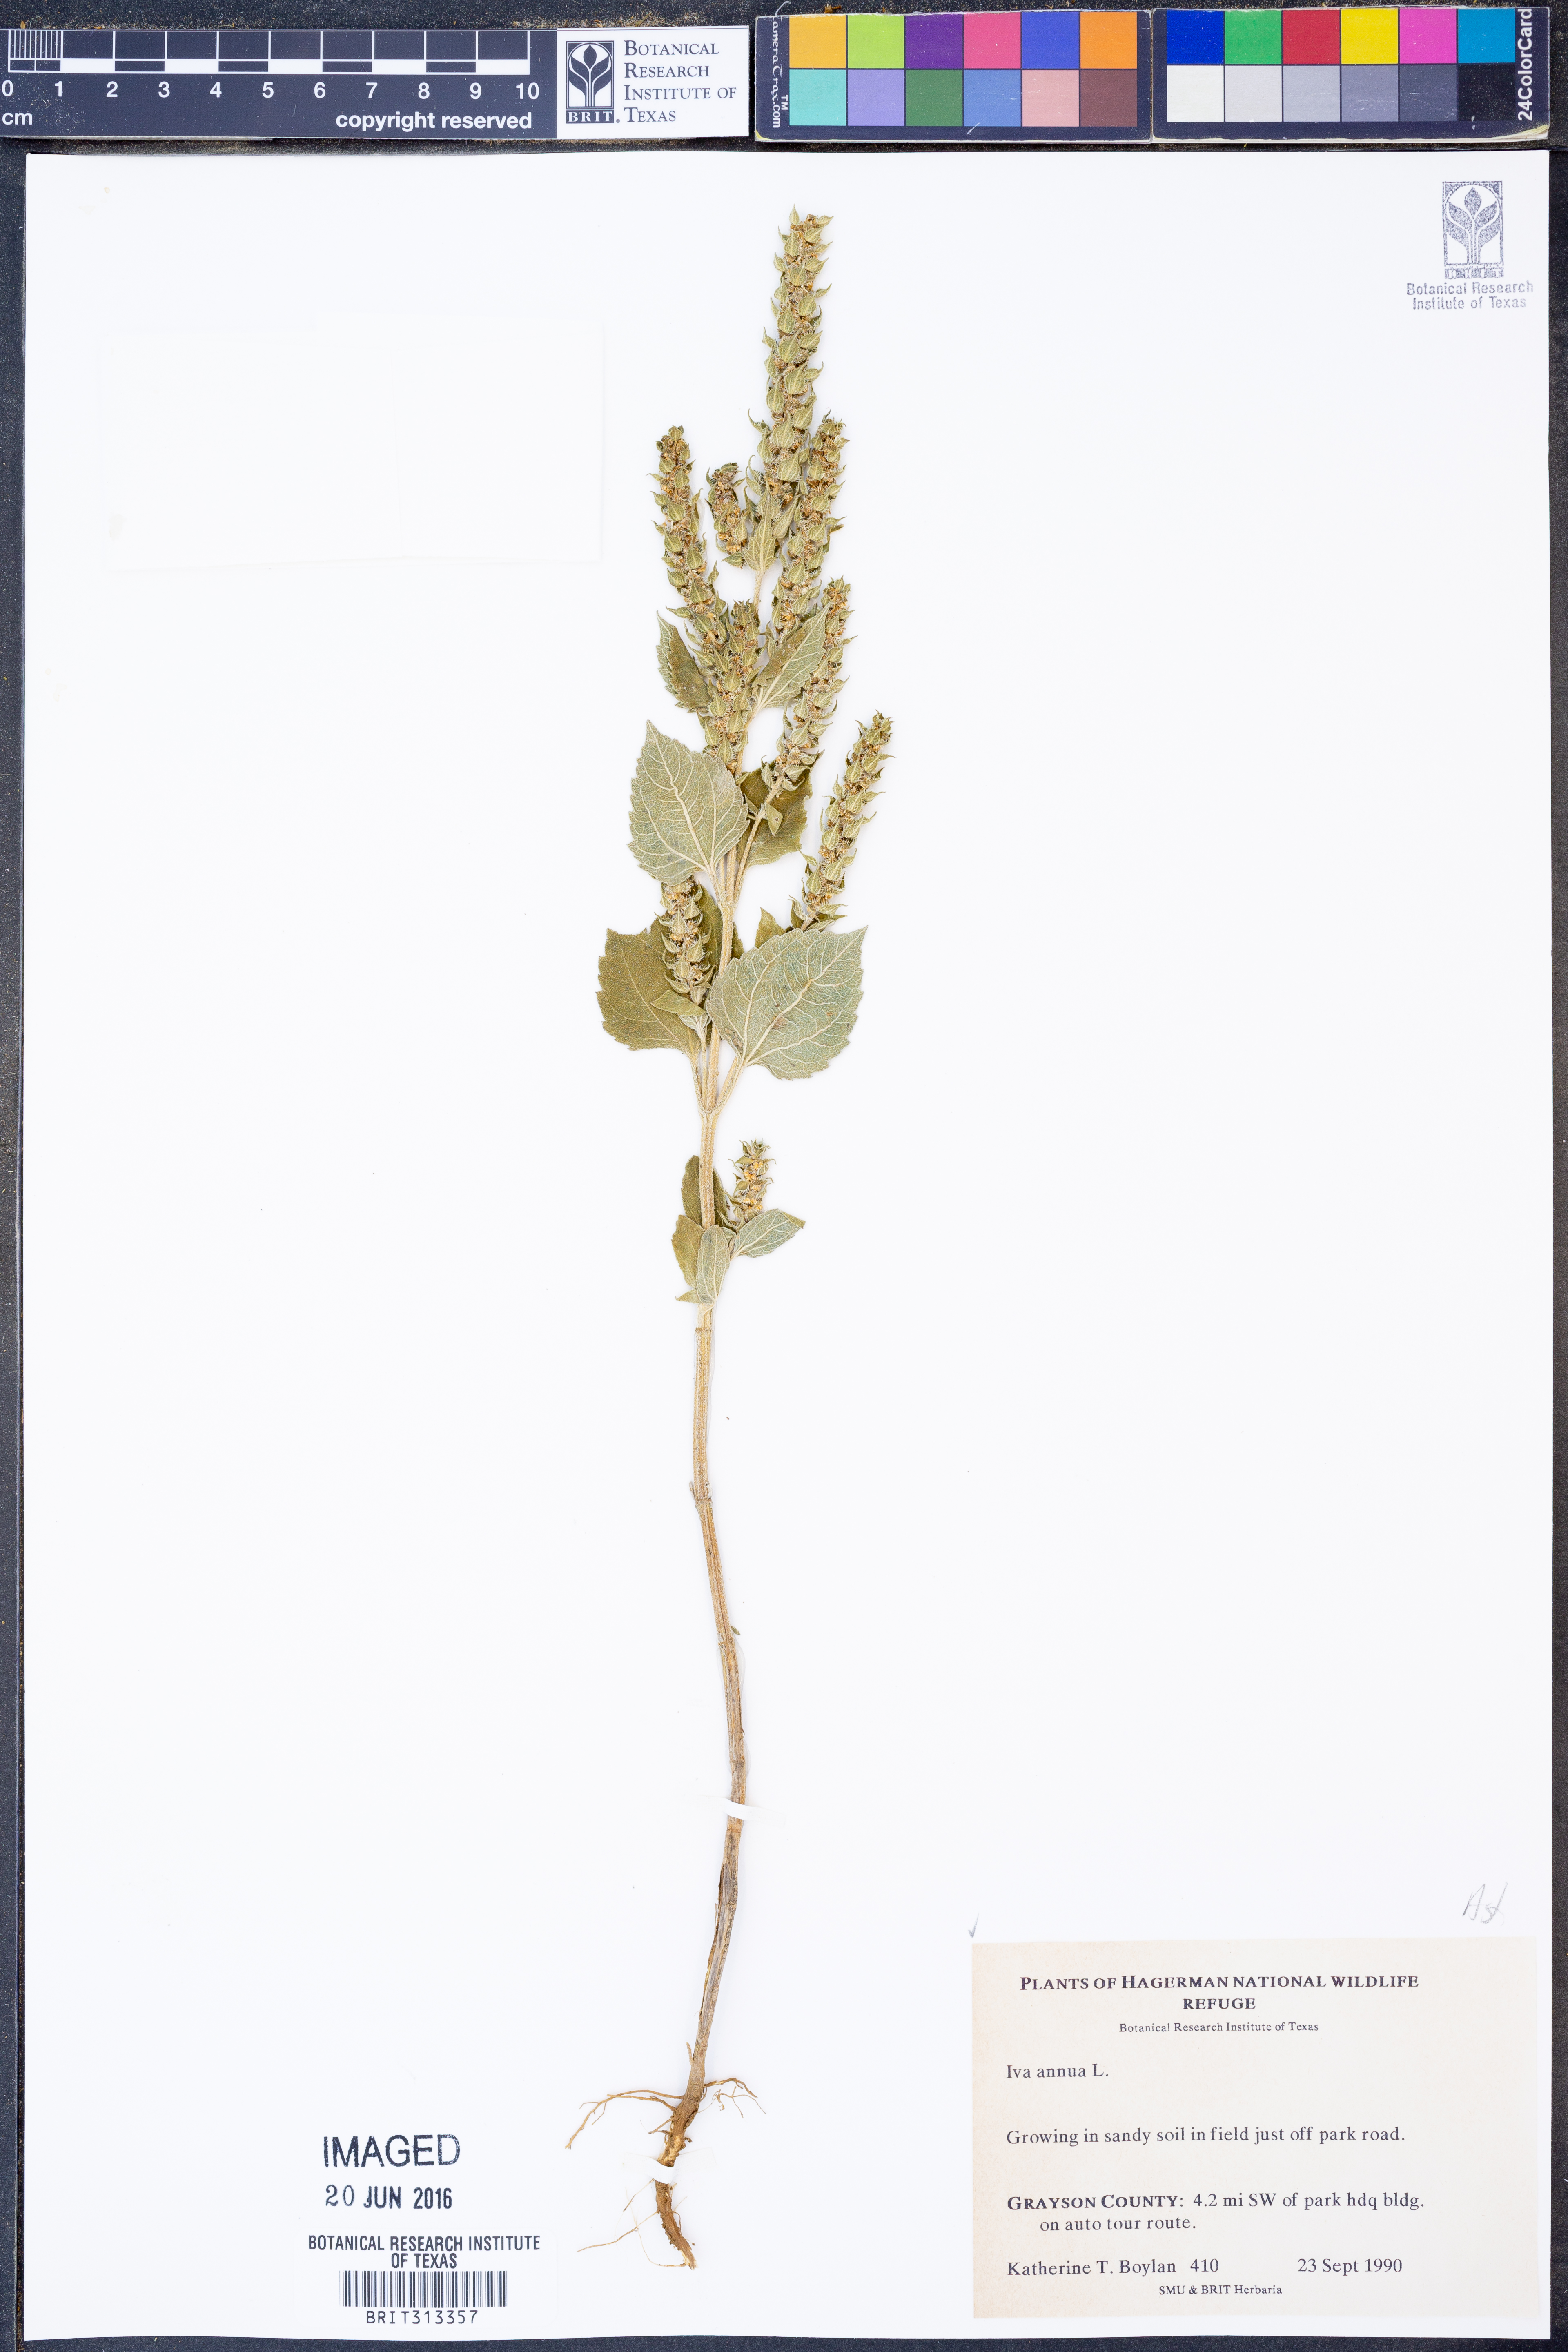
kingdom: Plantae
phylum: Tracheophyta
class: Magnoliopsida
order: Asterales
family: Asteraceae
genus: Iva
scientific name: Iva annua
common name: Marsh-elder
